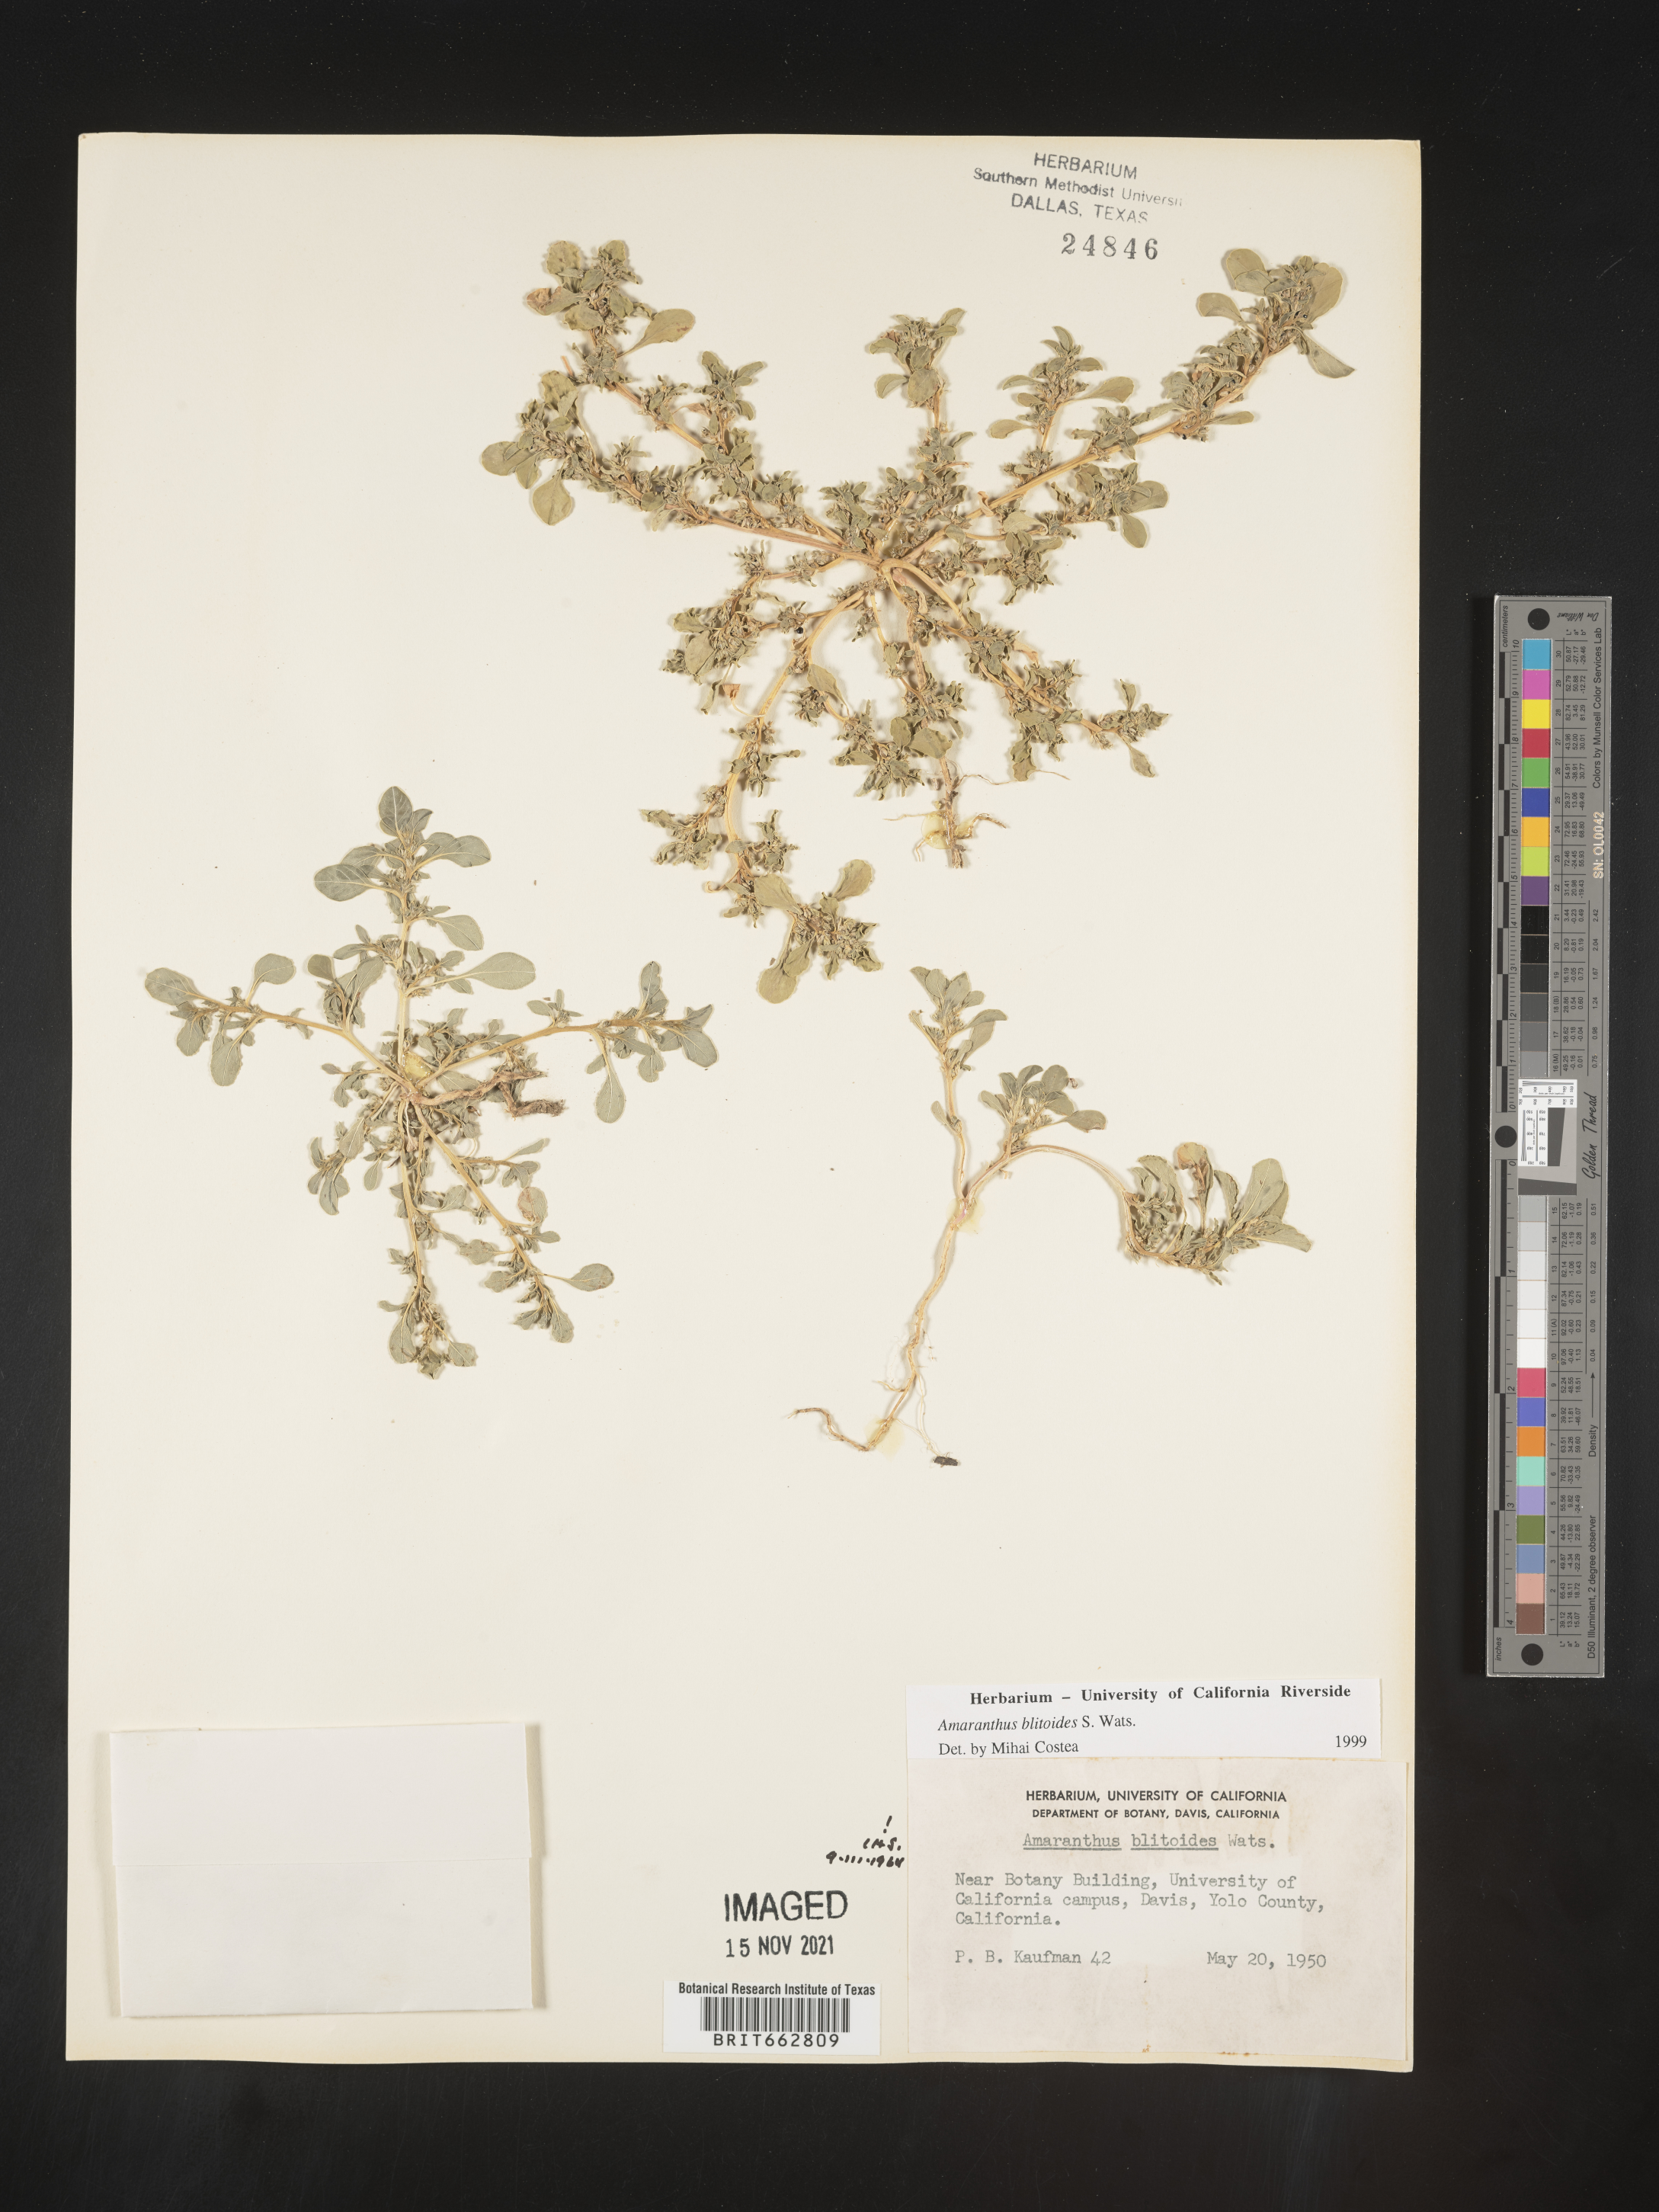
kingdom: Plantae
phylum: Tracheophyta
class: Magnoliopsida
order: Caryophyllales
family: Amaranthaceae
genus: Amaranthus
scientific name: Amaranthus blitoides
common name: Prostrate pigweed
